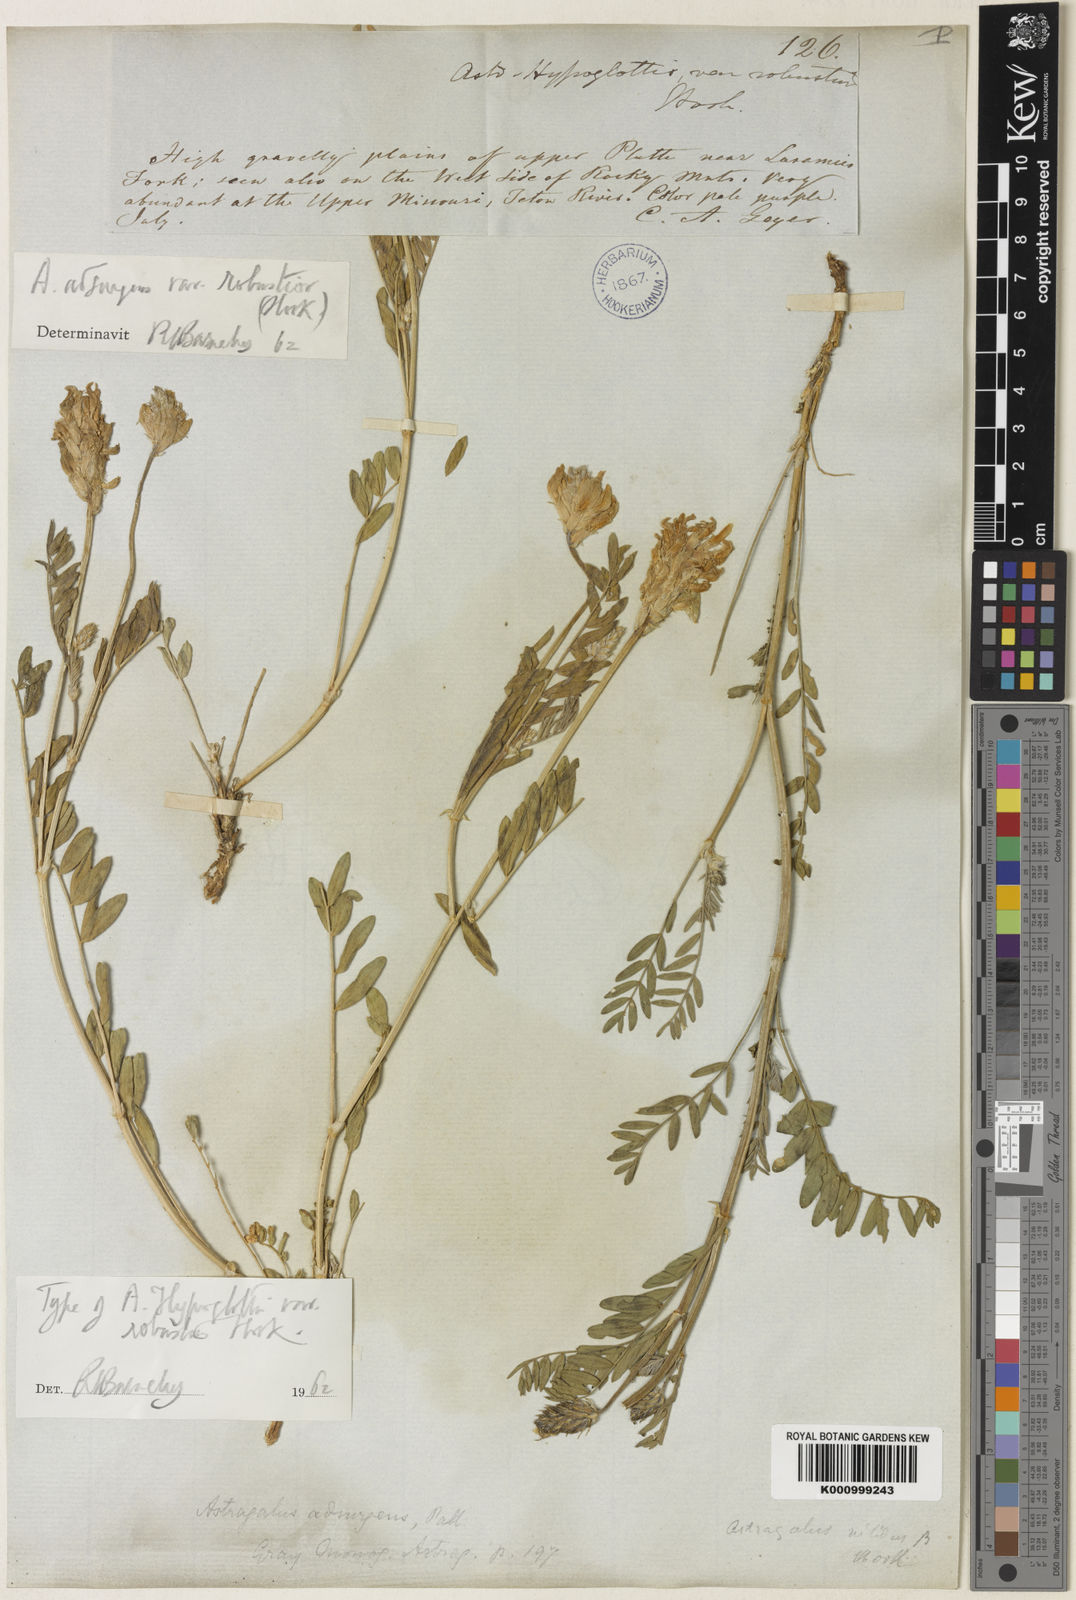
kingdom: Plantae
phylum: Tracheophyta
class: Magnoliopsida
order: Fabales
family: Fabaceae
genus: Astragalus
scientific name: Astragalus laxmannii
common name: Laxmann's milk-vetch
